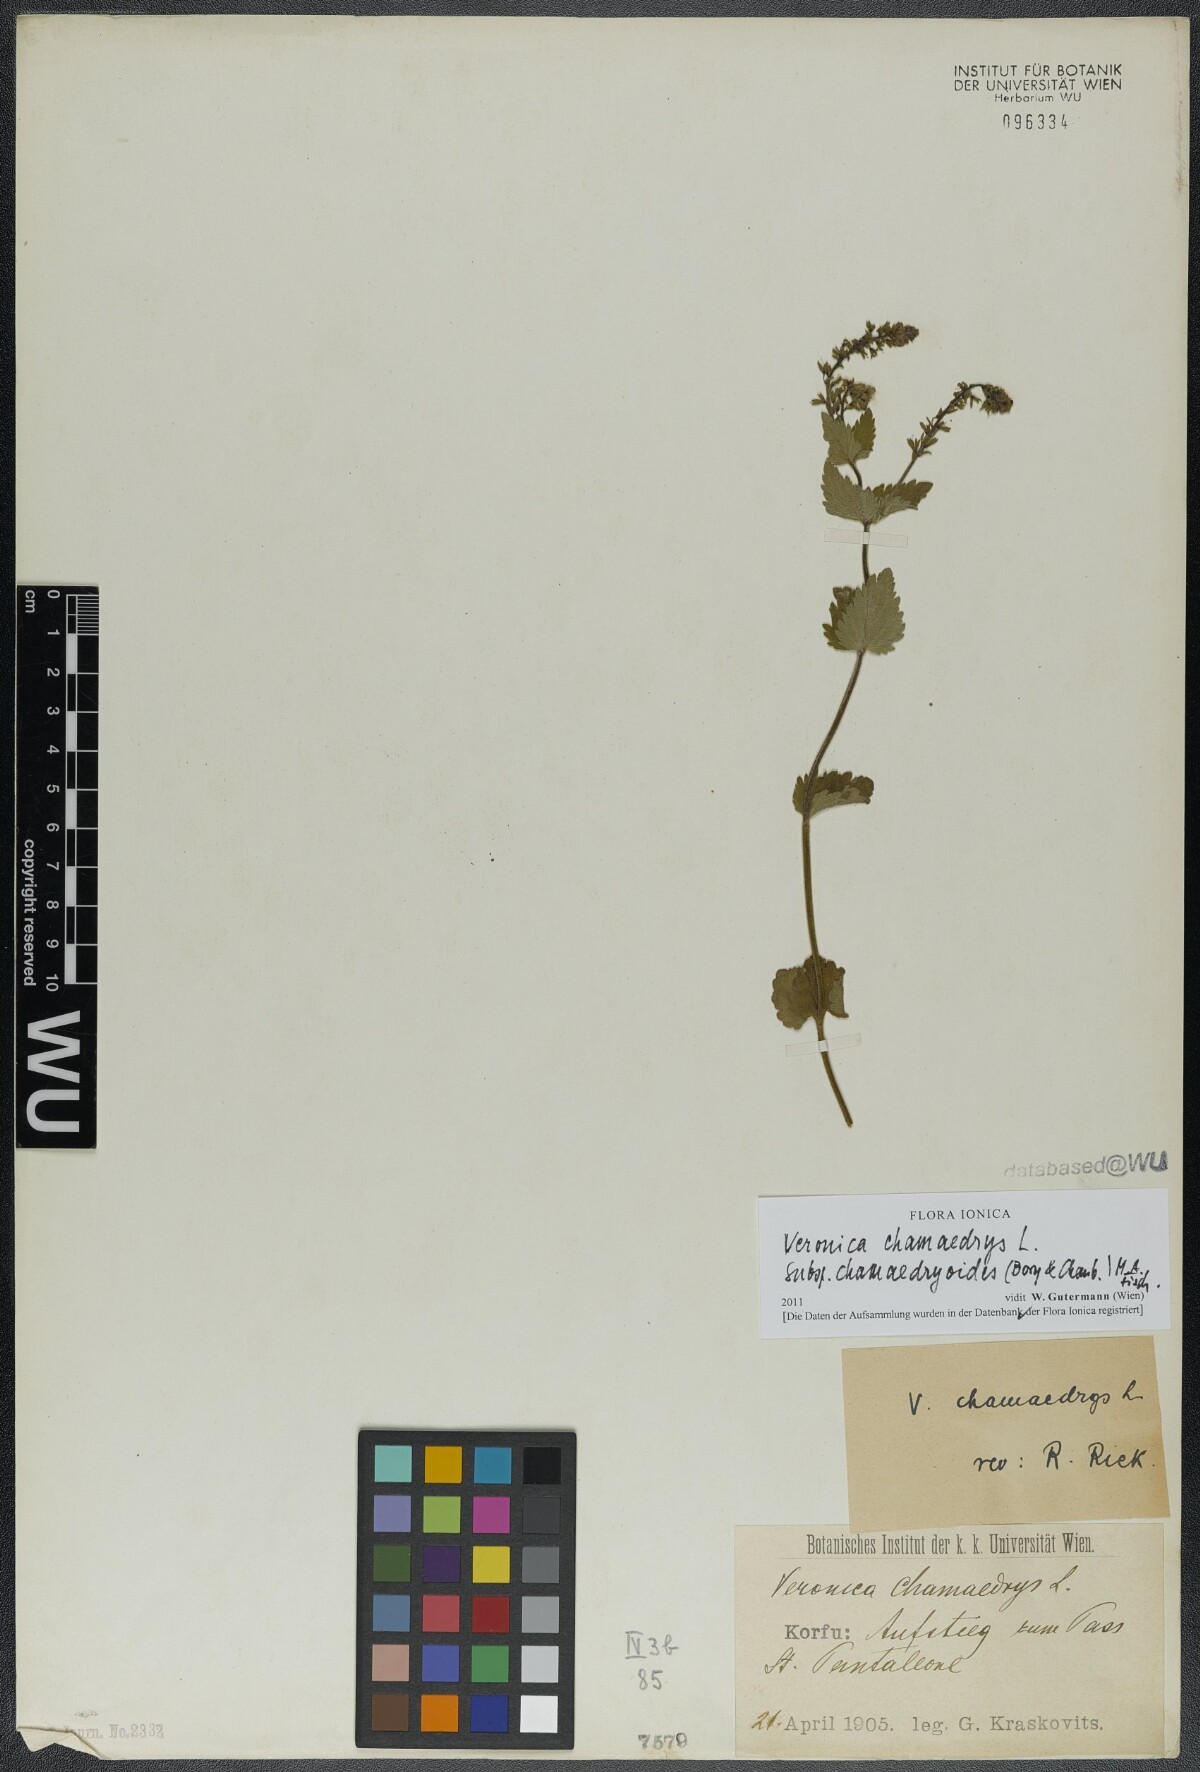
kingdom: Plantae
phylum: Tracheophyta
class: Magnoliopsida
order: Lamiales
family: Plantaginaceae
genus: Veronica
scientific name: Veronica chamaedrys
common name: Germander speedwell
